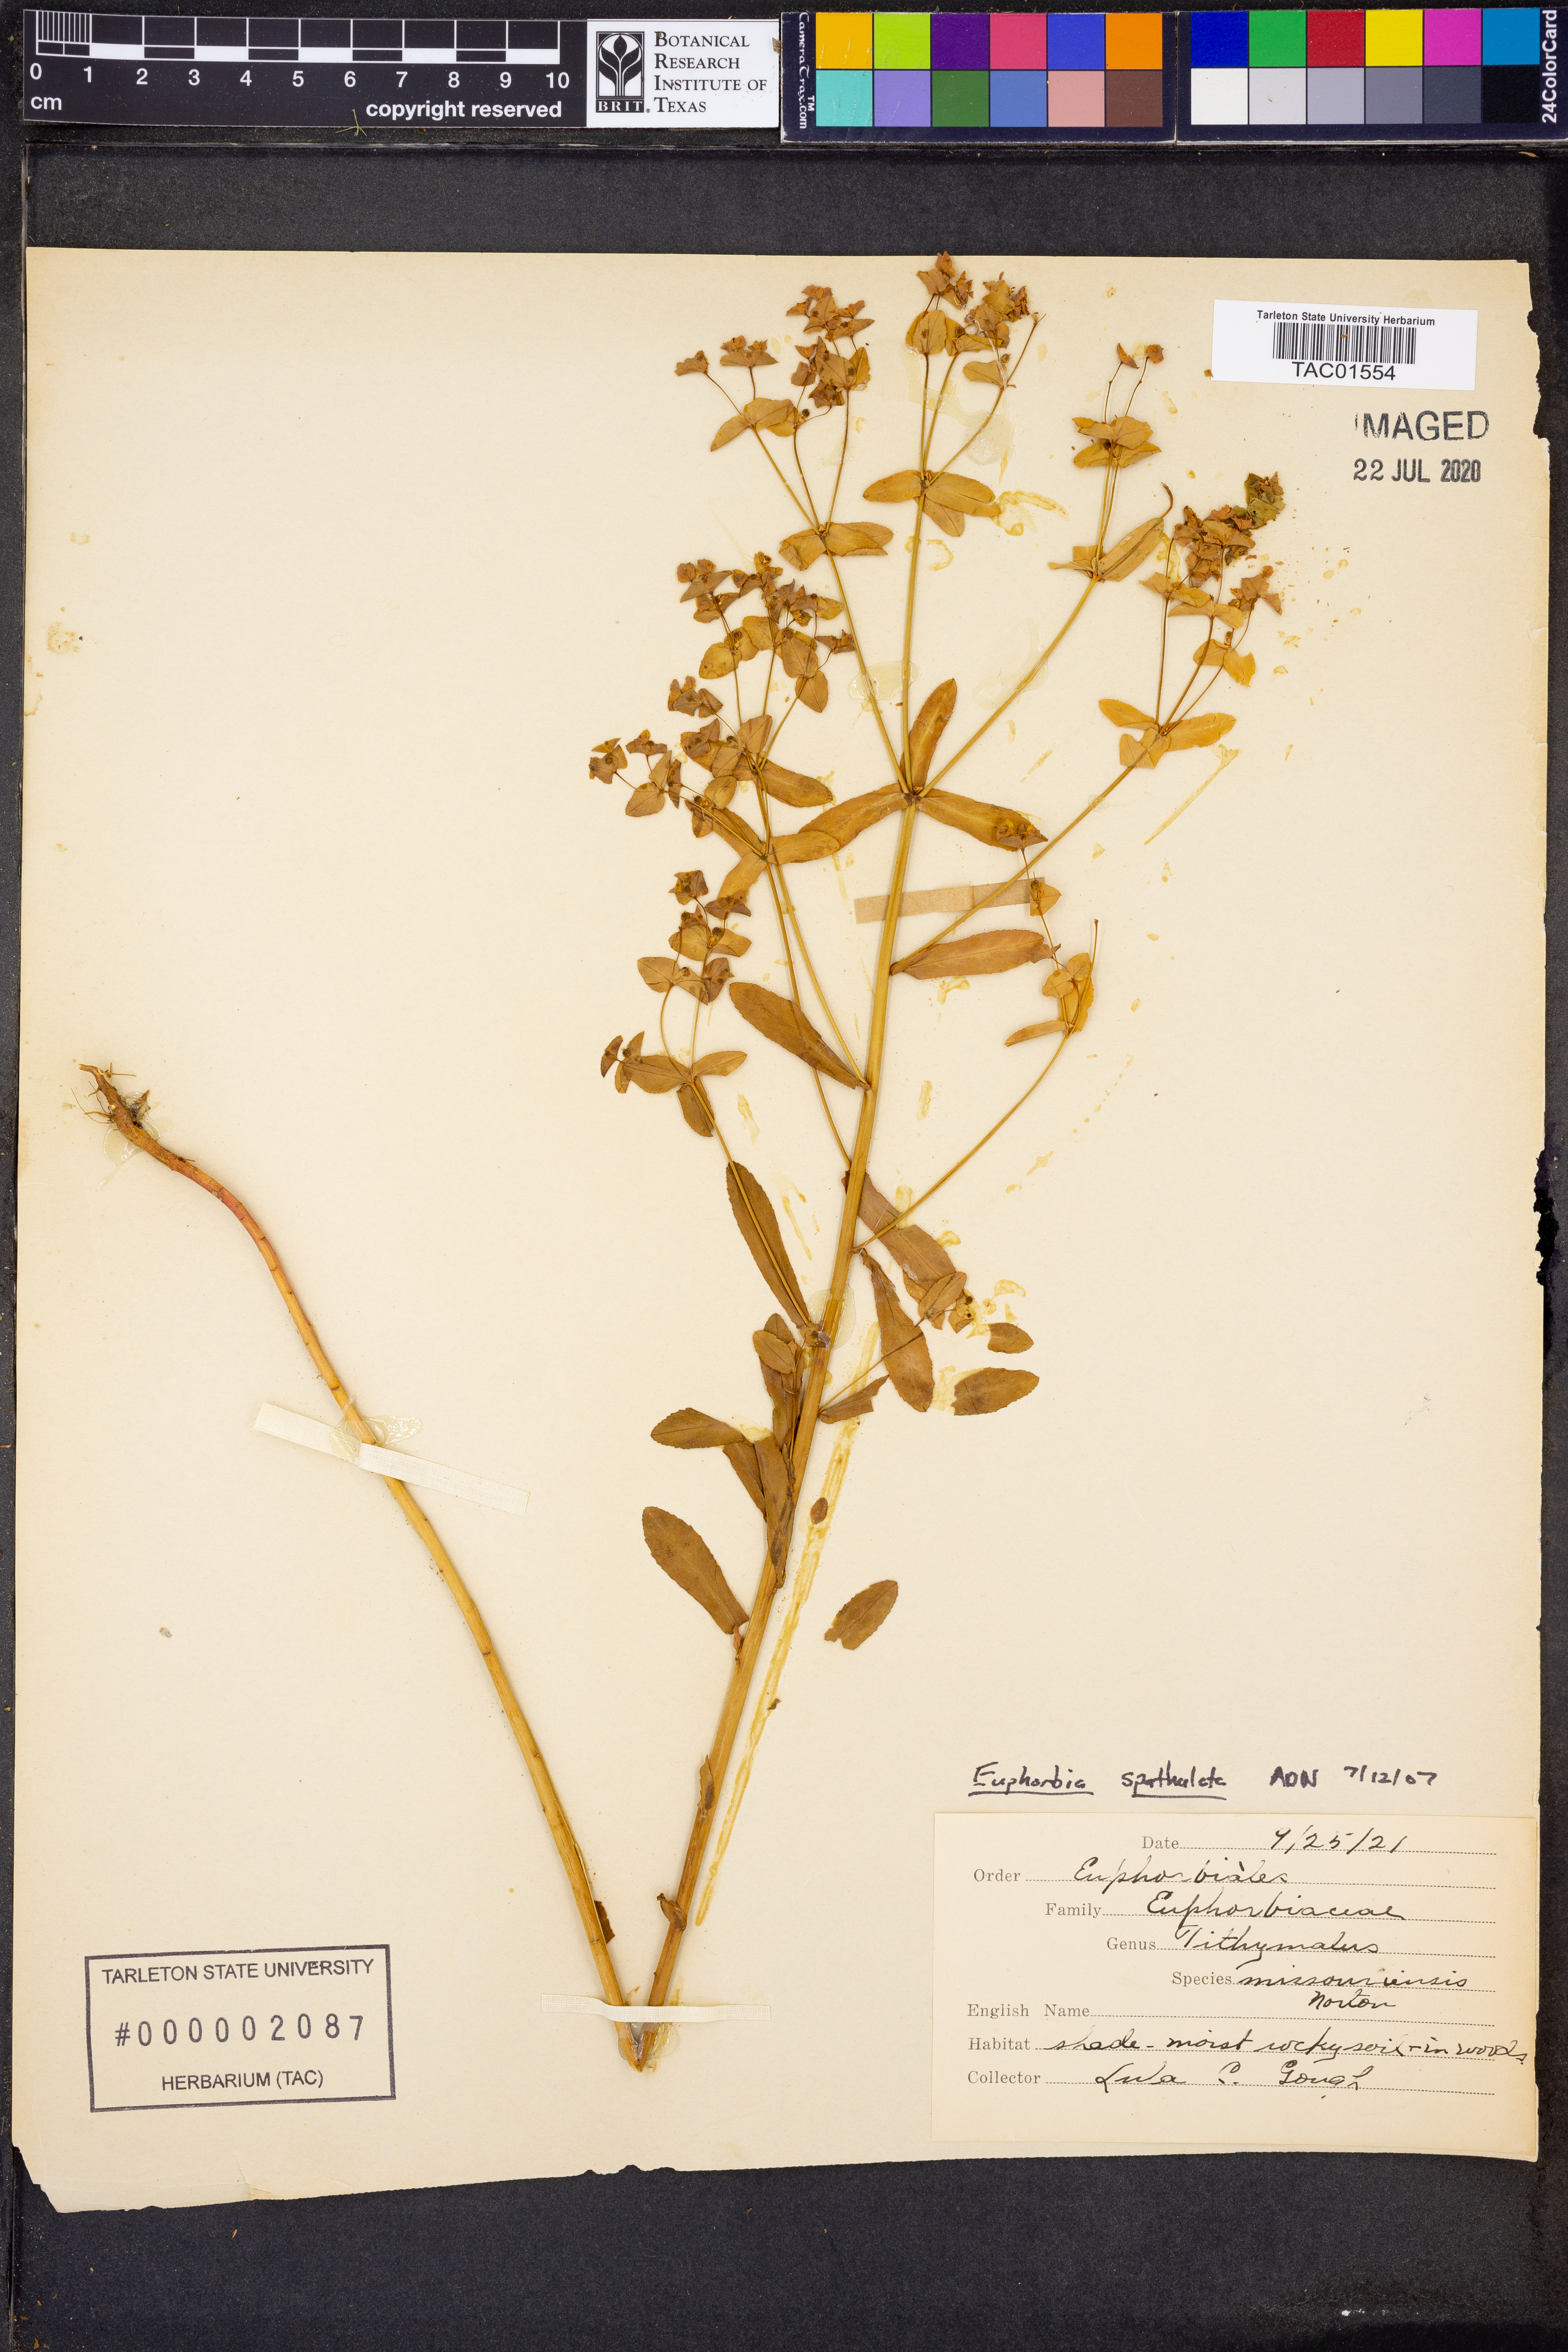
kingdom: Plantae
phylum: Tracheophyta
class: Magnoliopsida
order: Malpighiales
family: Euphorbiaceae
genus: Euphorbia
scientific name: Euphorbia spathulata
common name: Blunt spurge
